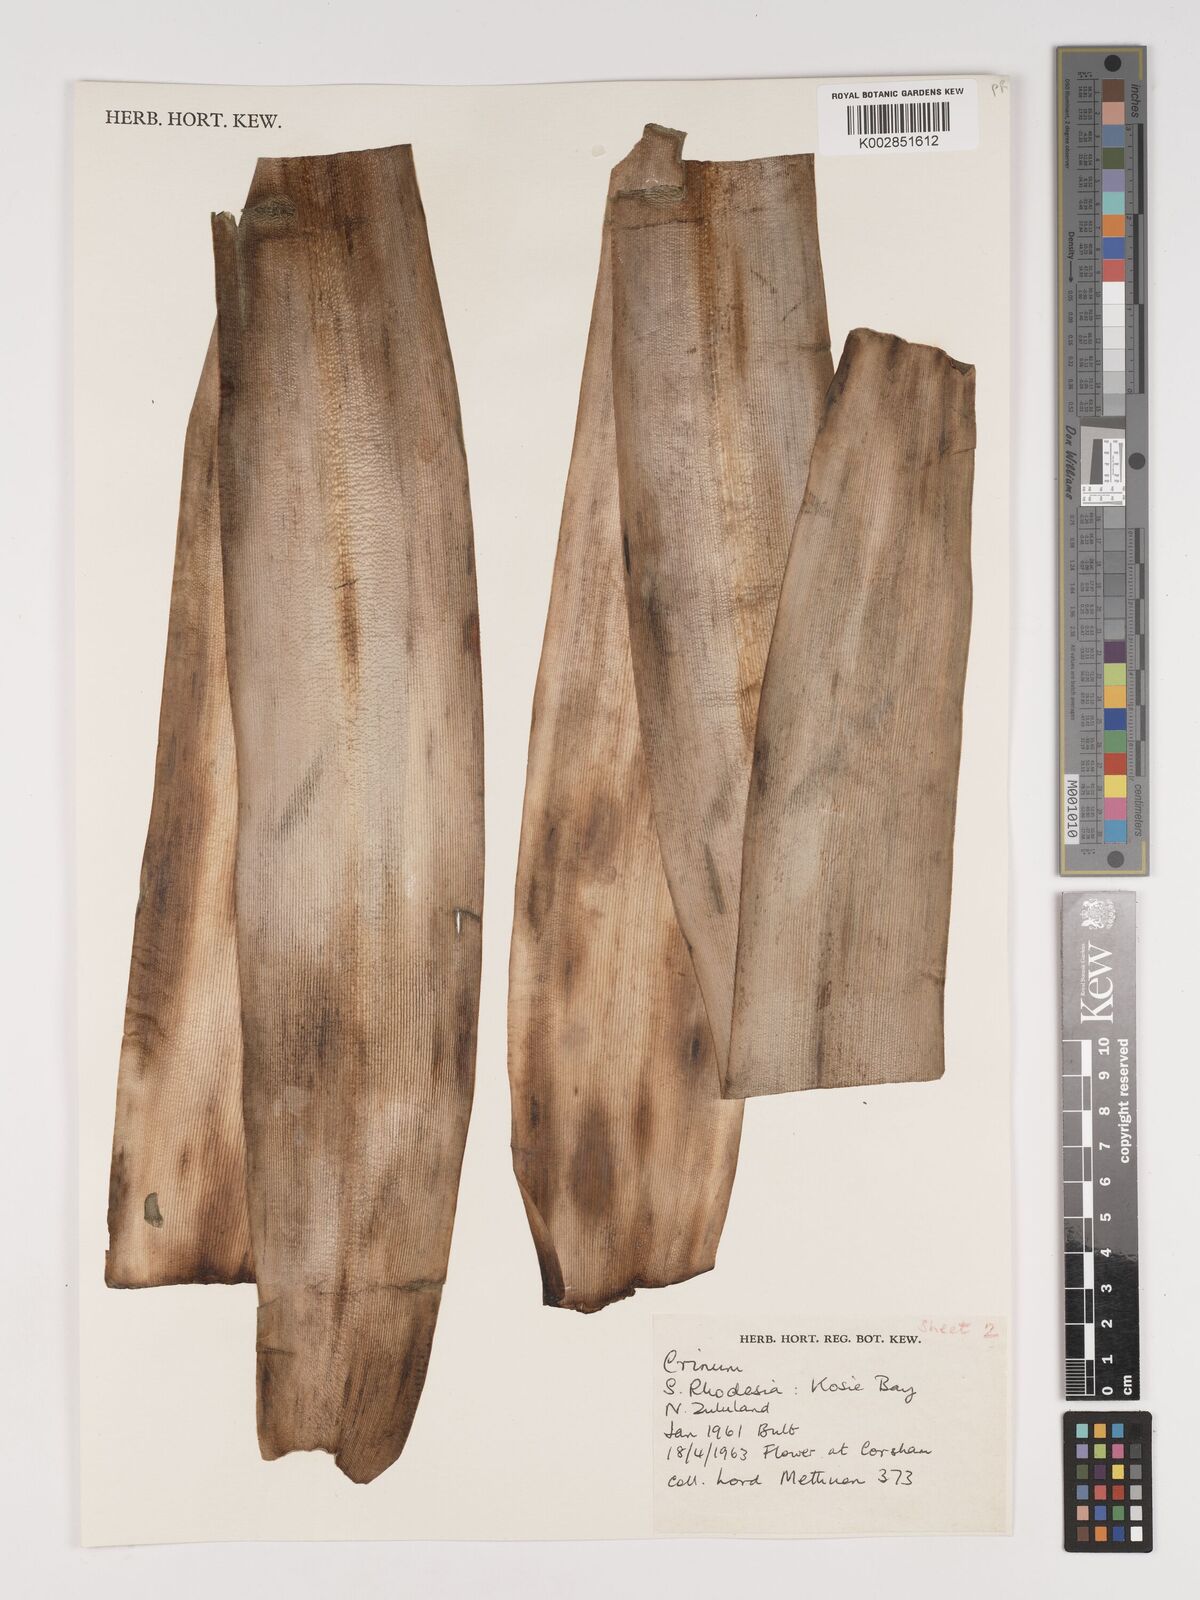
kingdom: Plantae
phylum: Tracheophyta
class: Liliopsida
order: Asparagales
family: Amaryllidaceae
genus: Crinum
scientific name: Crinum macowanii
